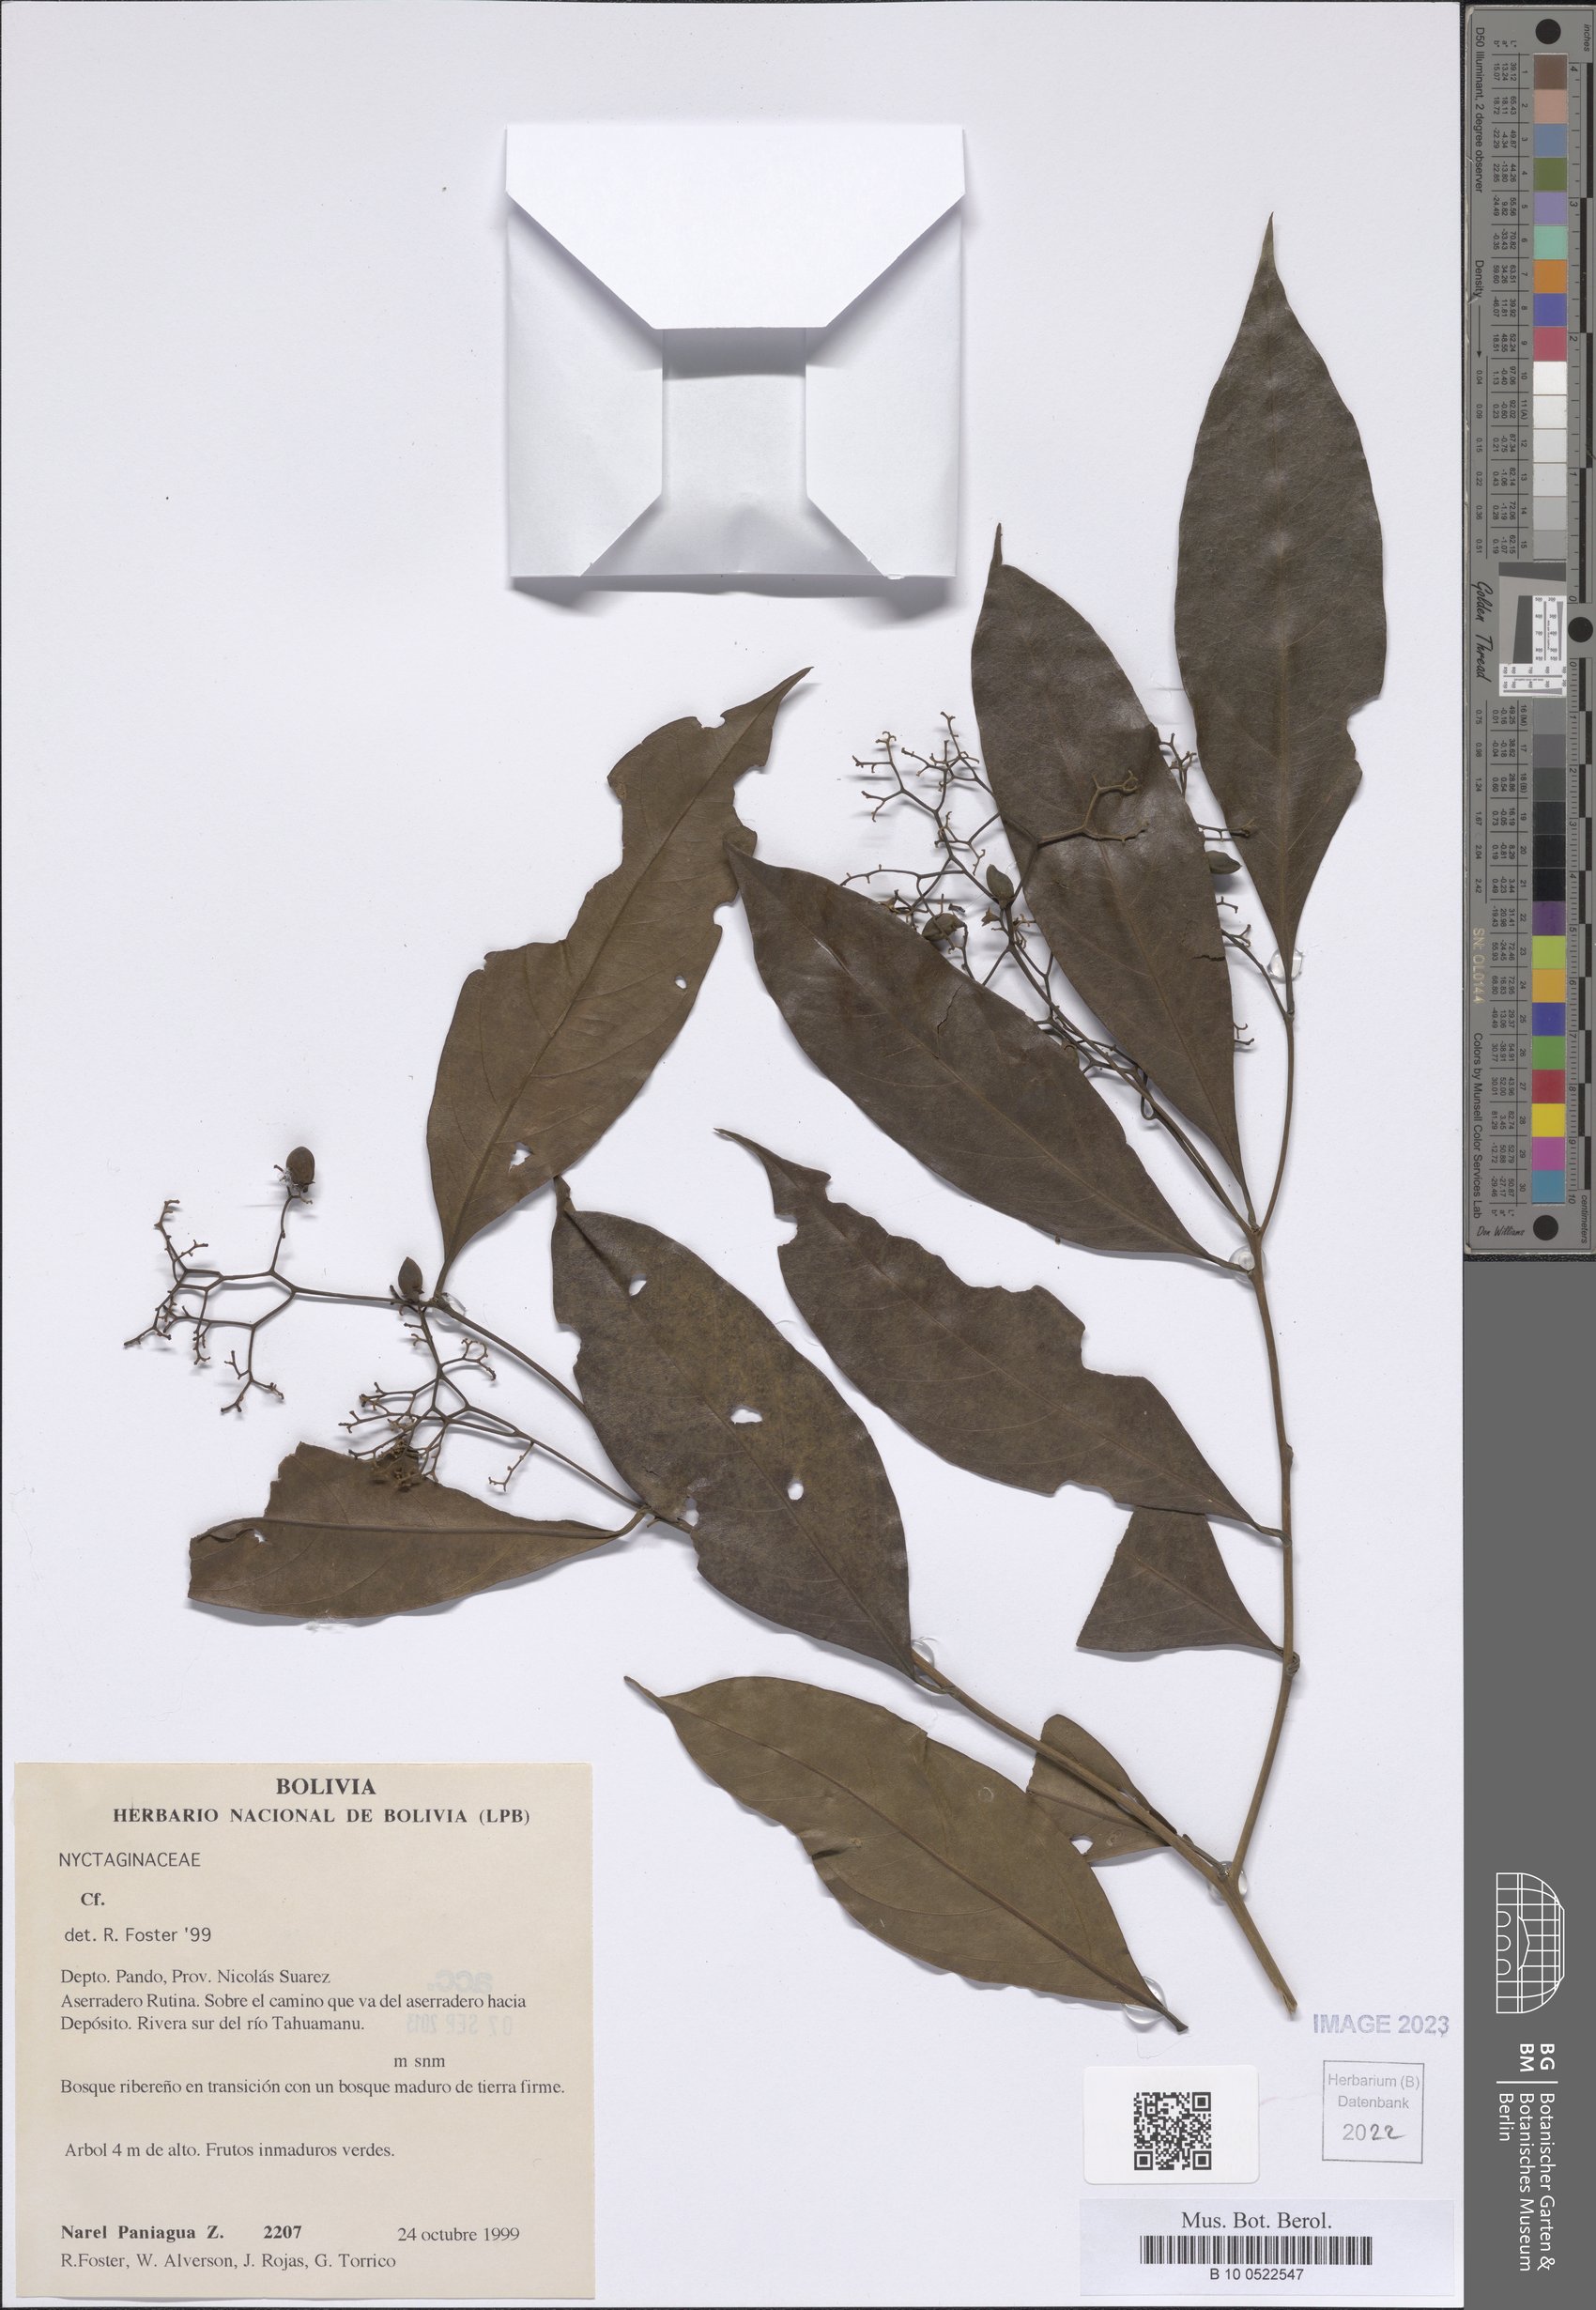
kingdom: Plantae
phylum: Tracheophyta
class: Magnoliopsida
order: Boraginales
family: Cordiaceae
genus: Cordia
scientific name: Cordia
